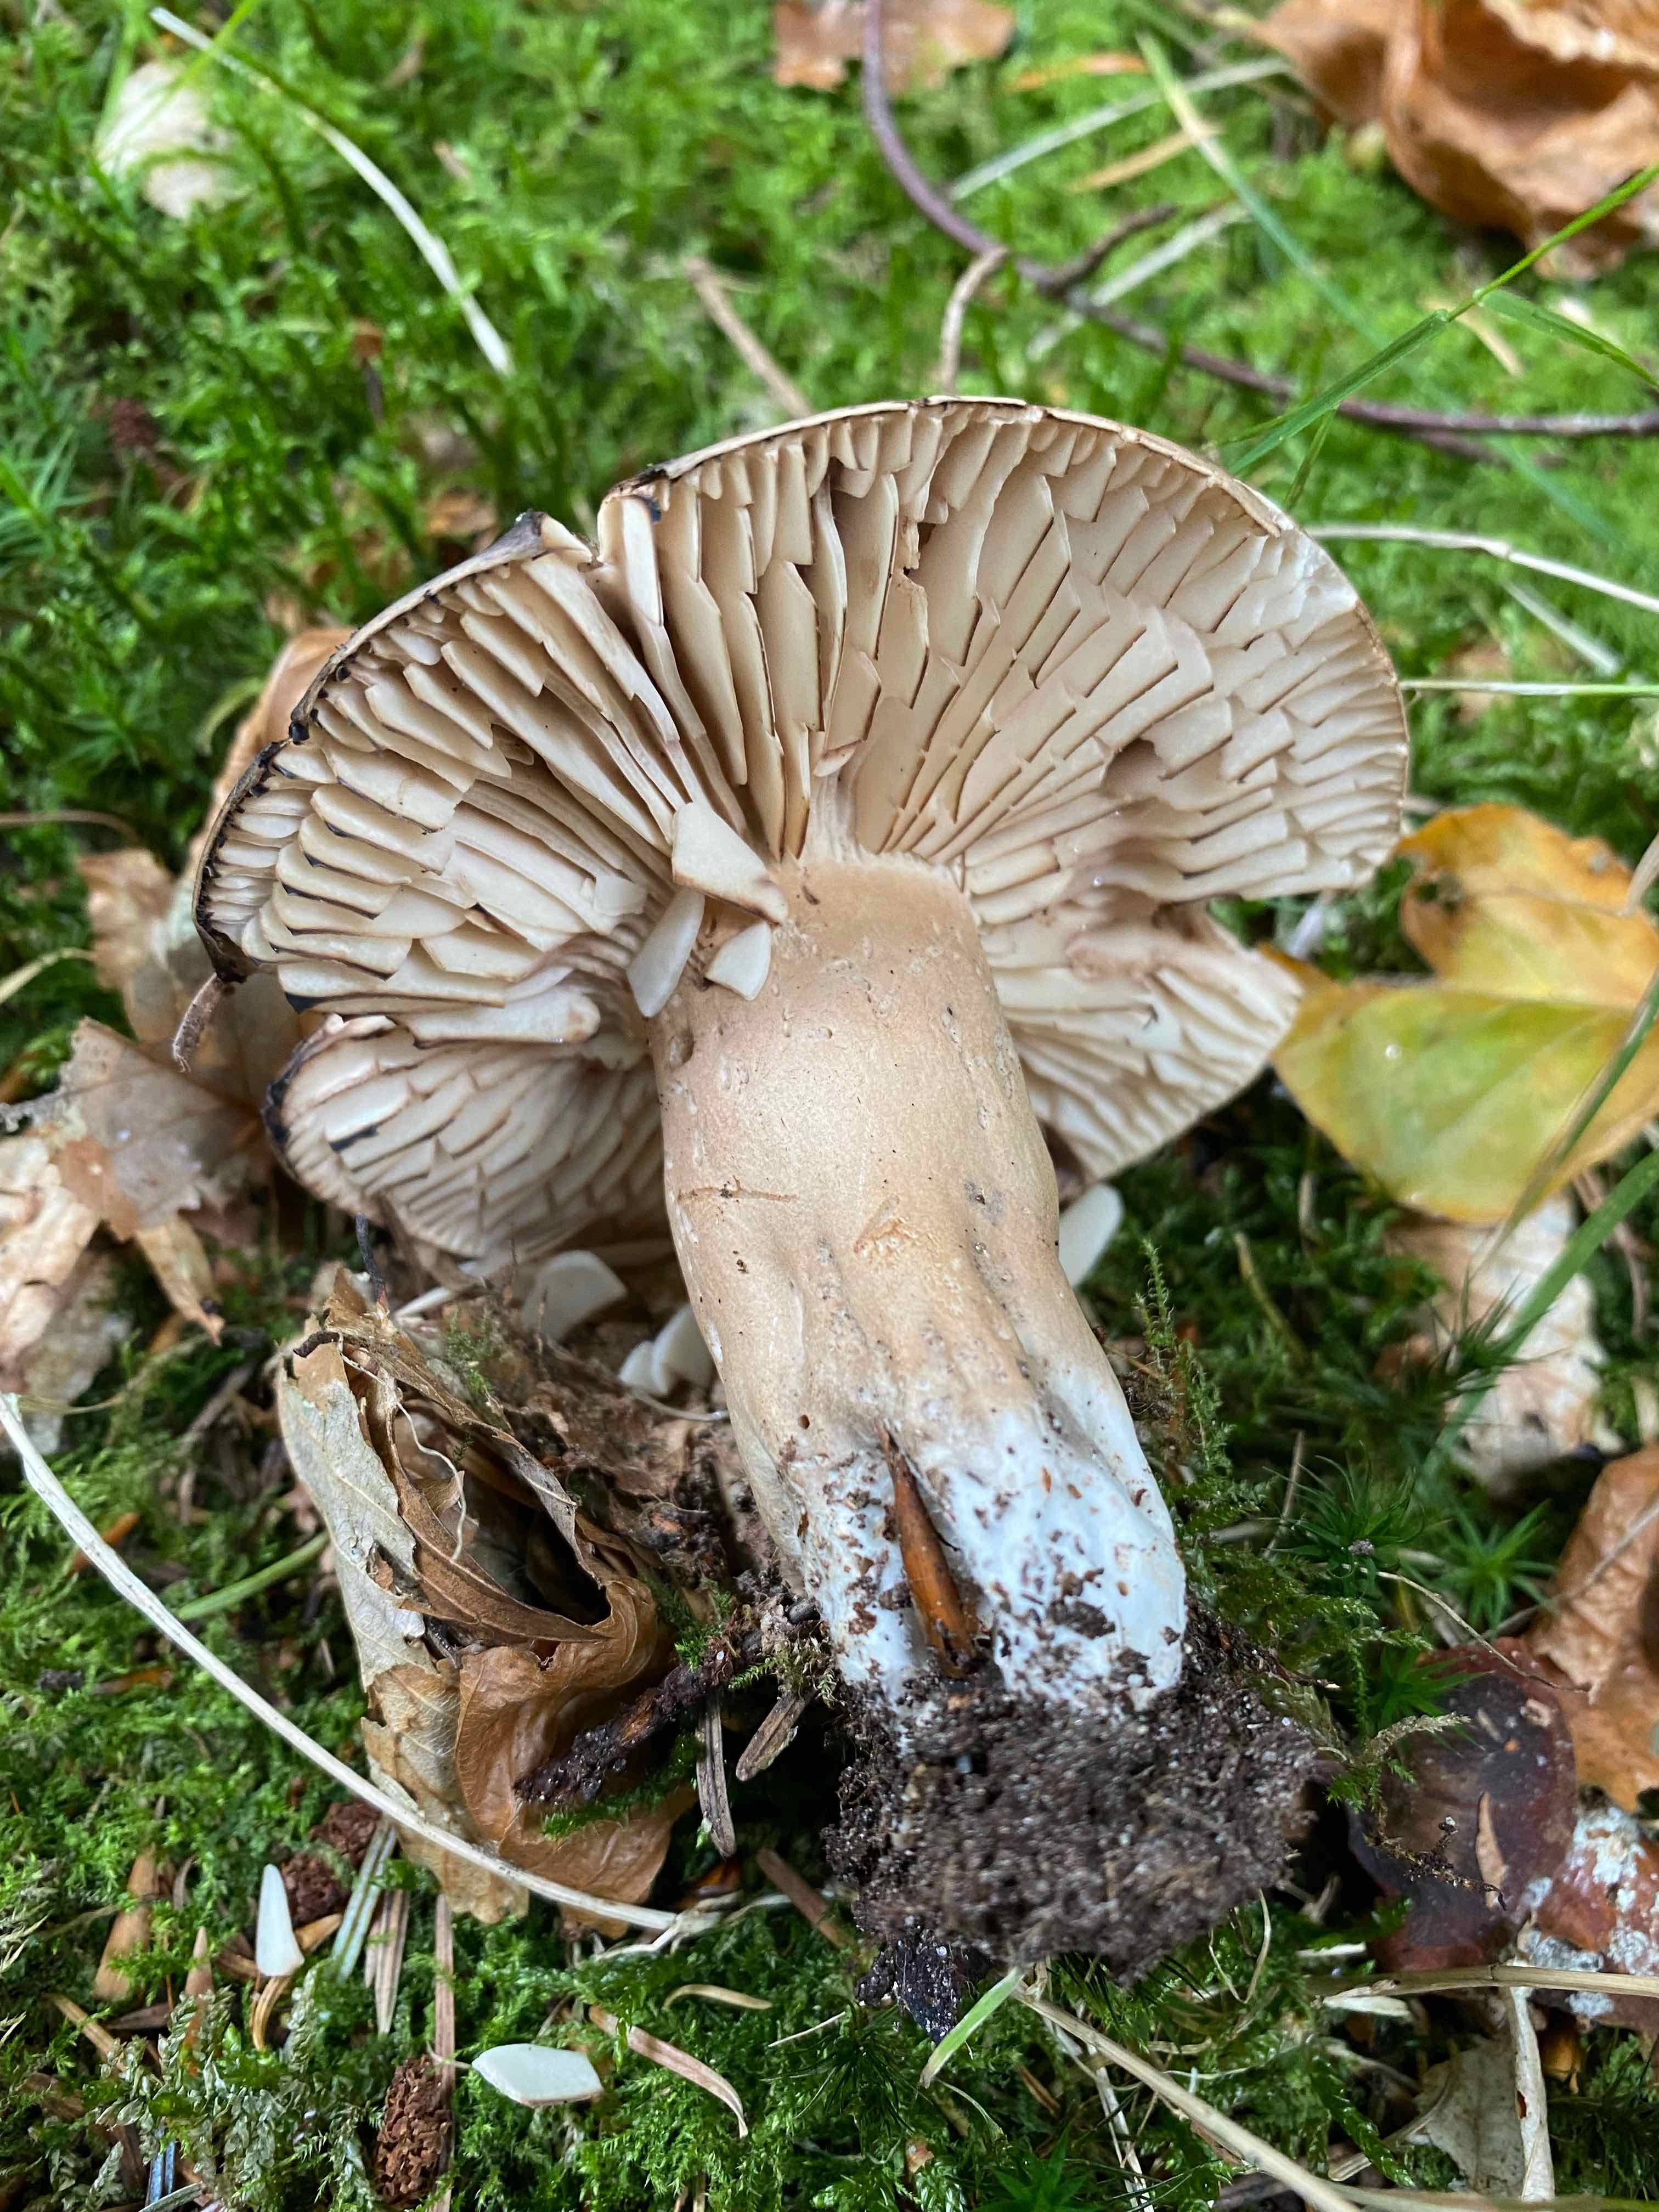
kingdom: Fungi
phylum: Basidiomycota
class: Agaricomycetes
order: Russulales
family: Russulaceae
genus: Russula
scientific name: Russula adusta
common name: sværtende skørhat
